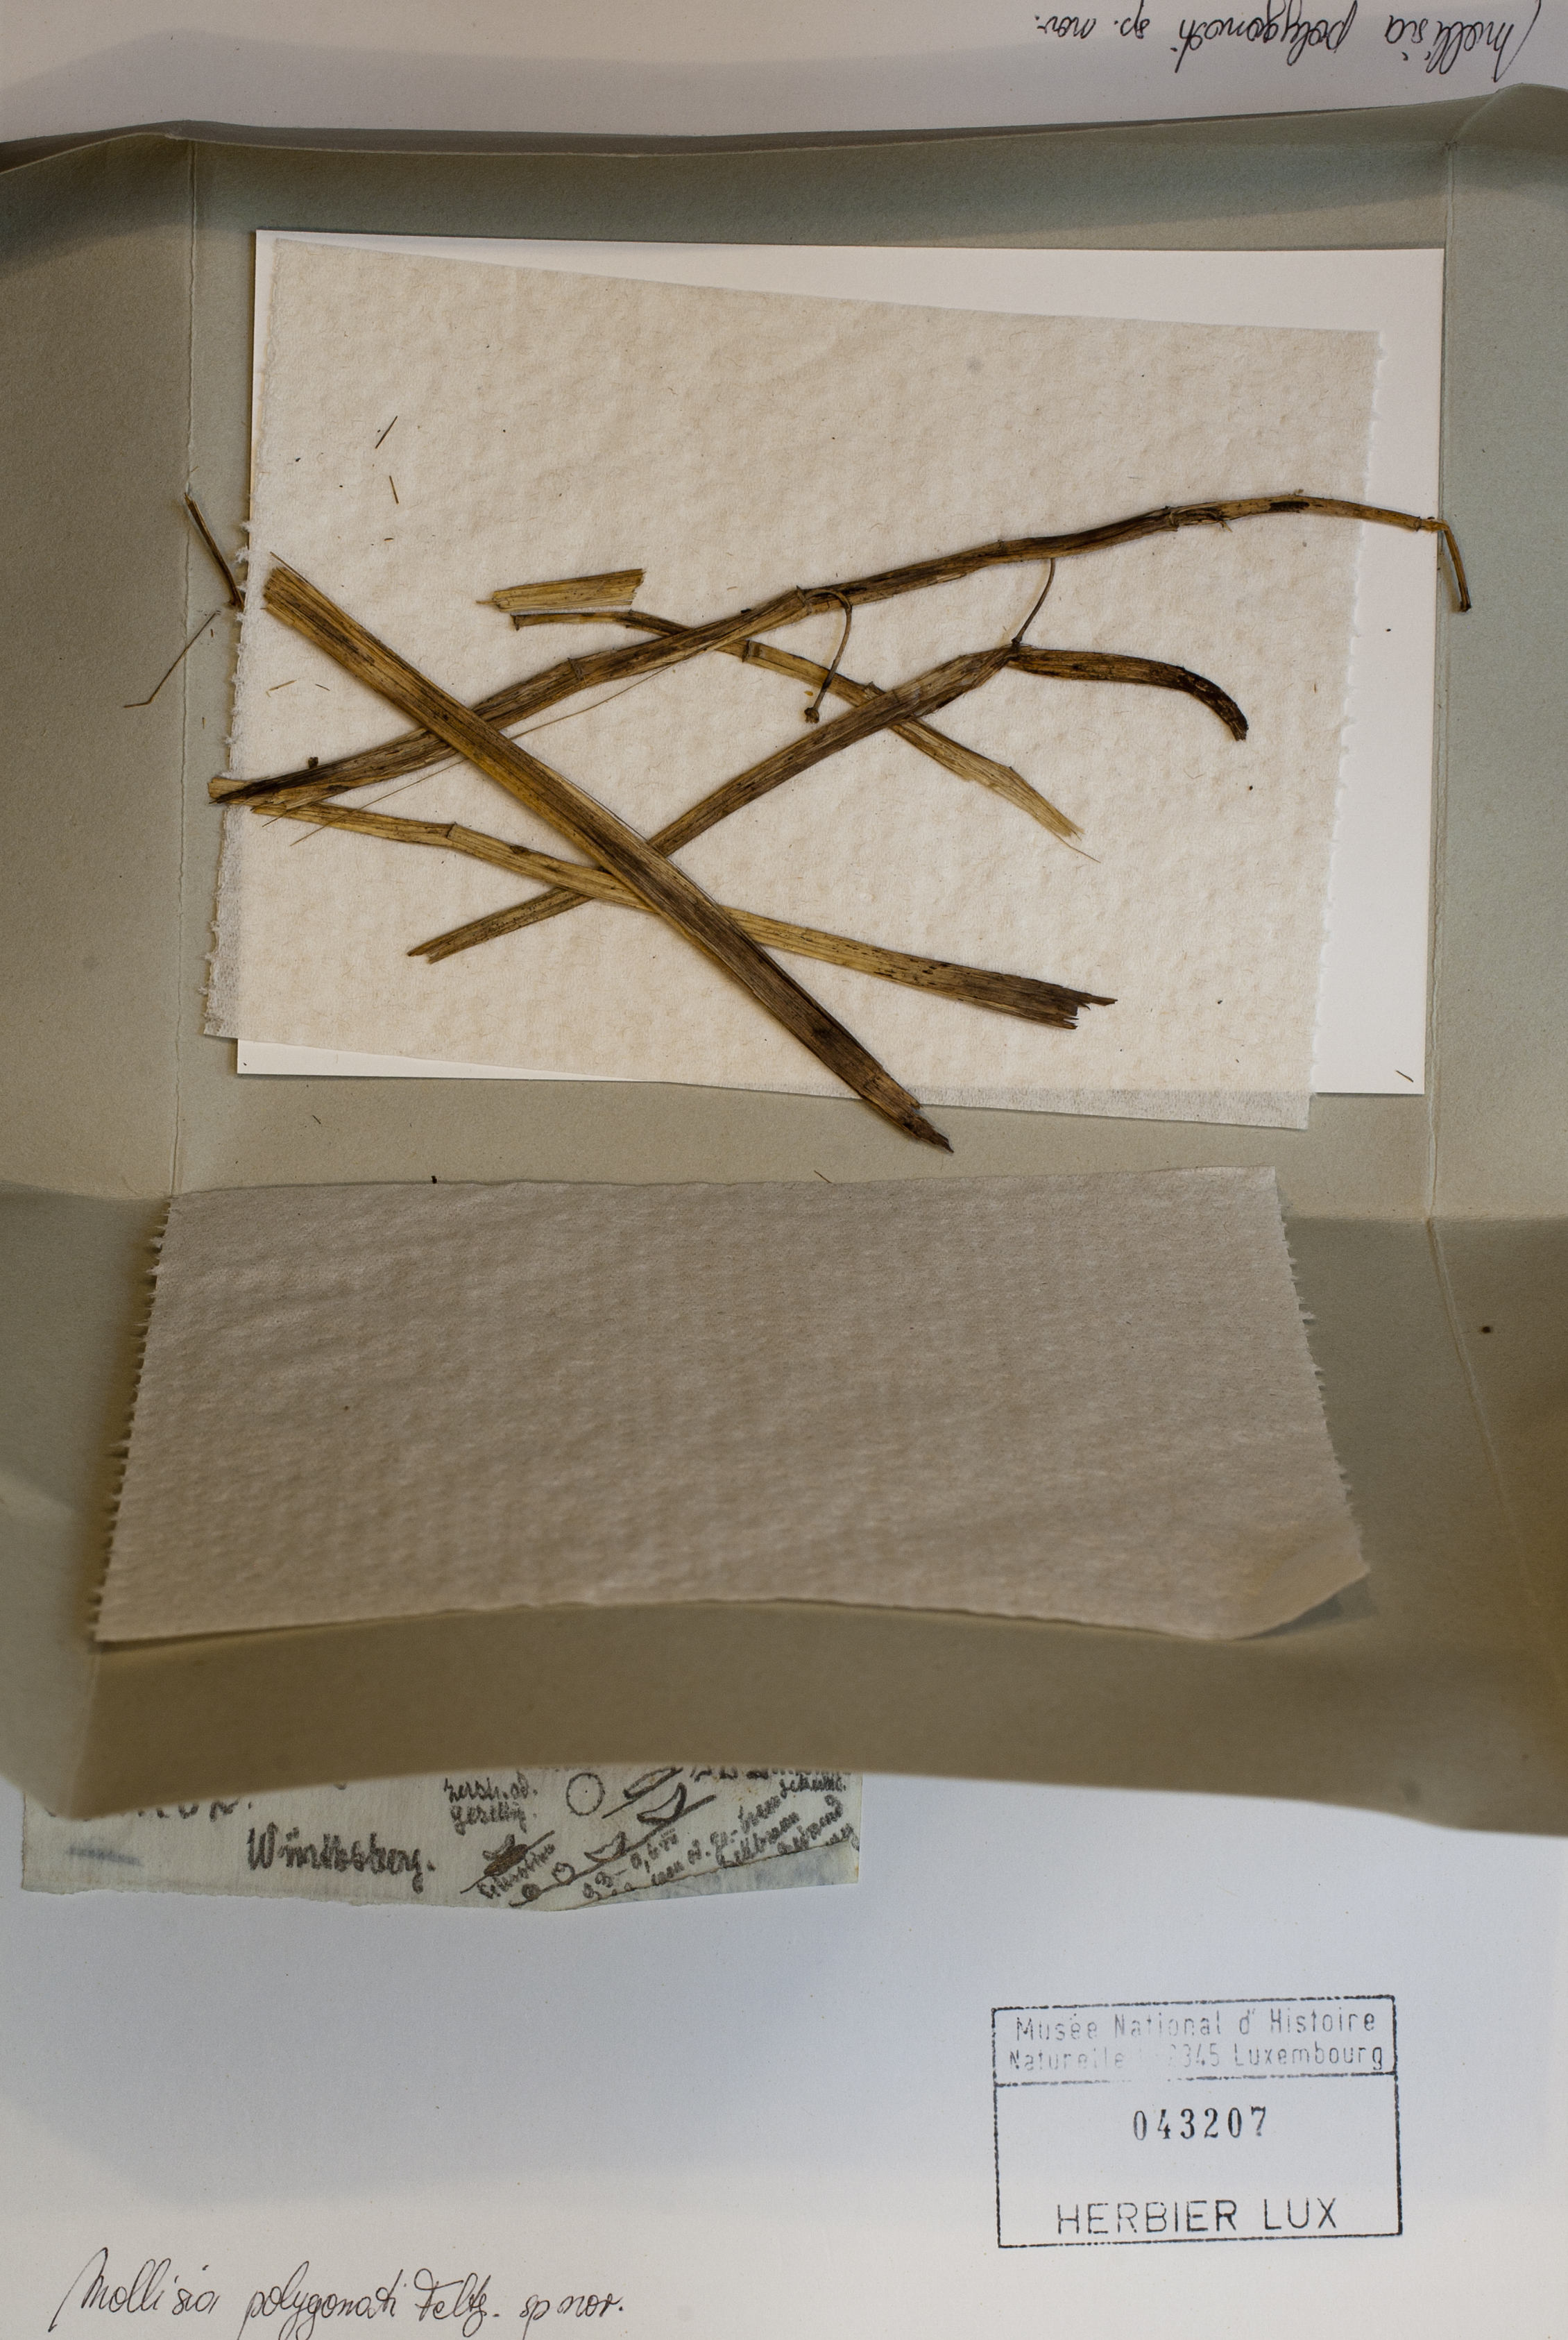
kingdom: Fungi
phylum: Ascomycota
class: Leotiomycetes
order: Helotiales
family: Mollisiaceae
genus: Mollisia
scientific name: Mollisia polygonati
